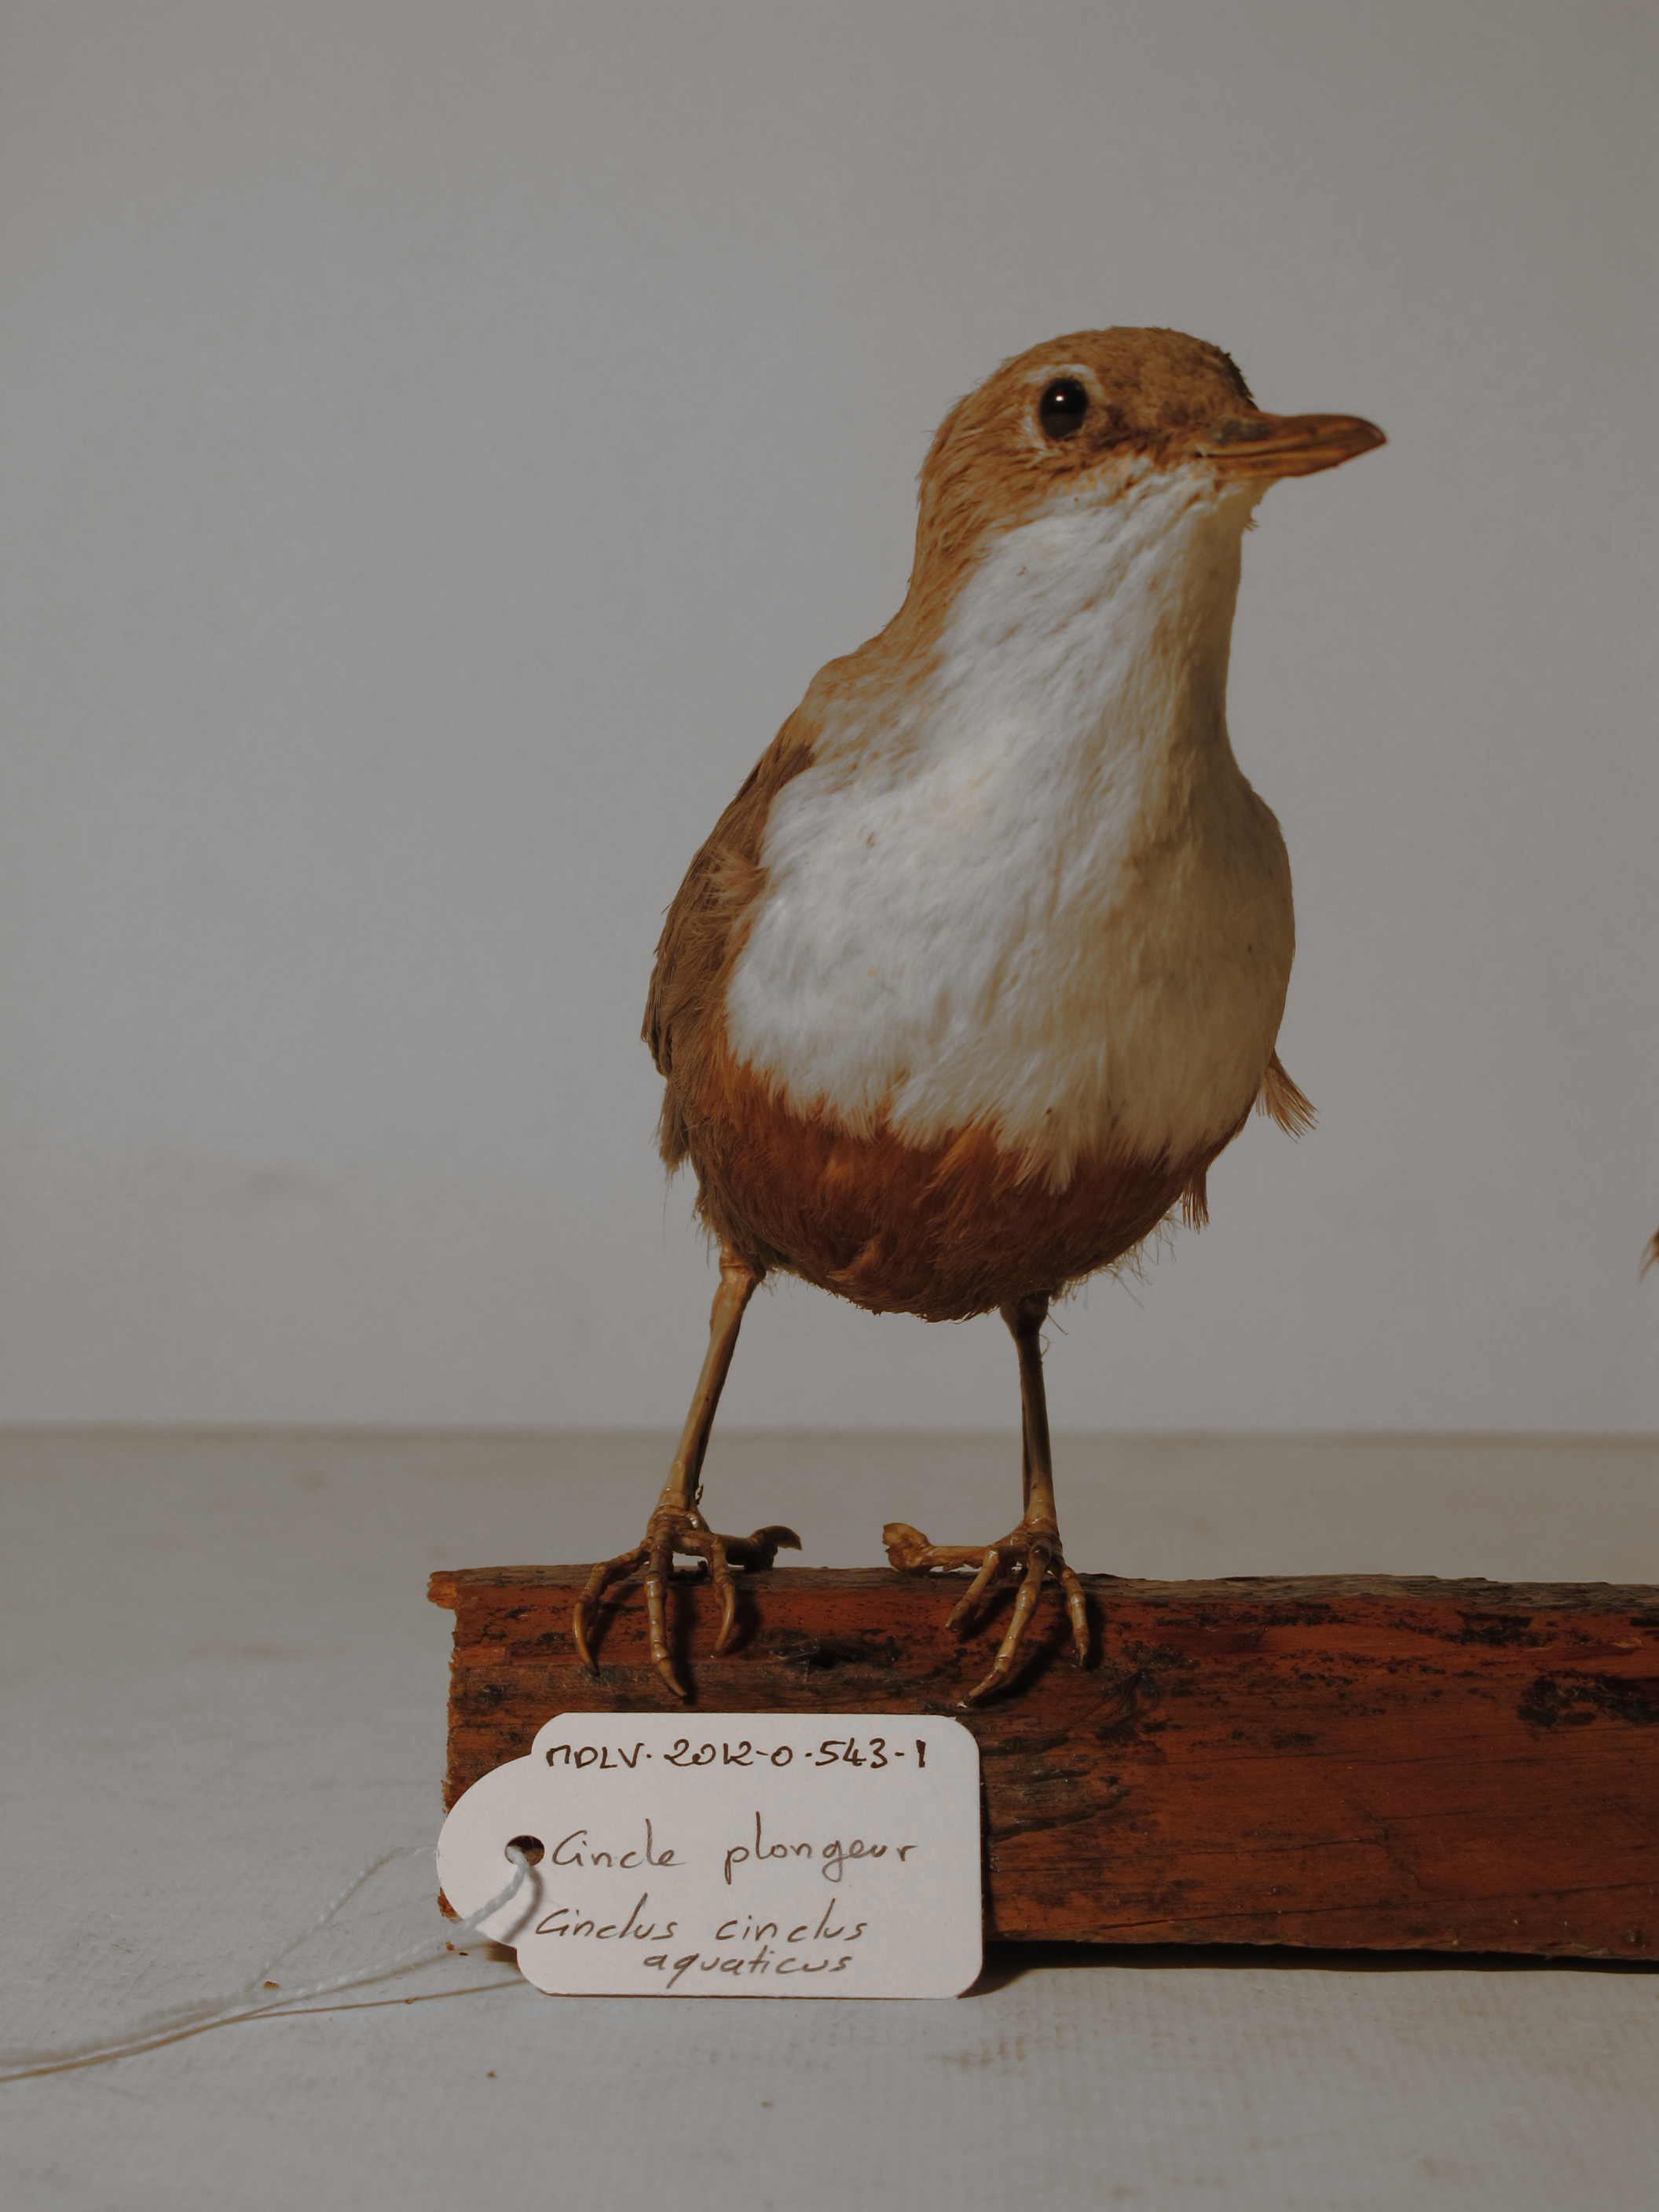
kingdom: Animalia
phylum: Chordata
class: Aves
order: Passeriformes
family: Cinclidae
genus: Cinclus
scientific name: Cinclus cinclus
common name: White-throated Dipper
